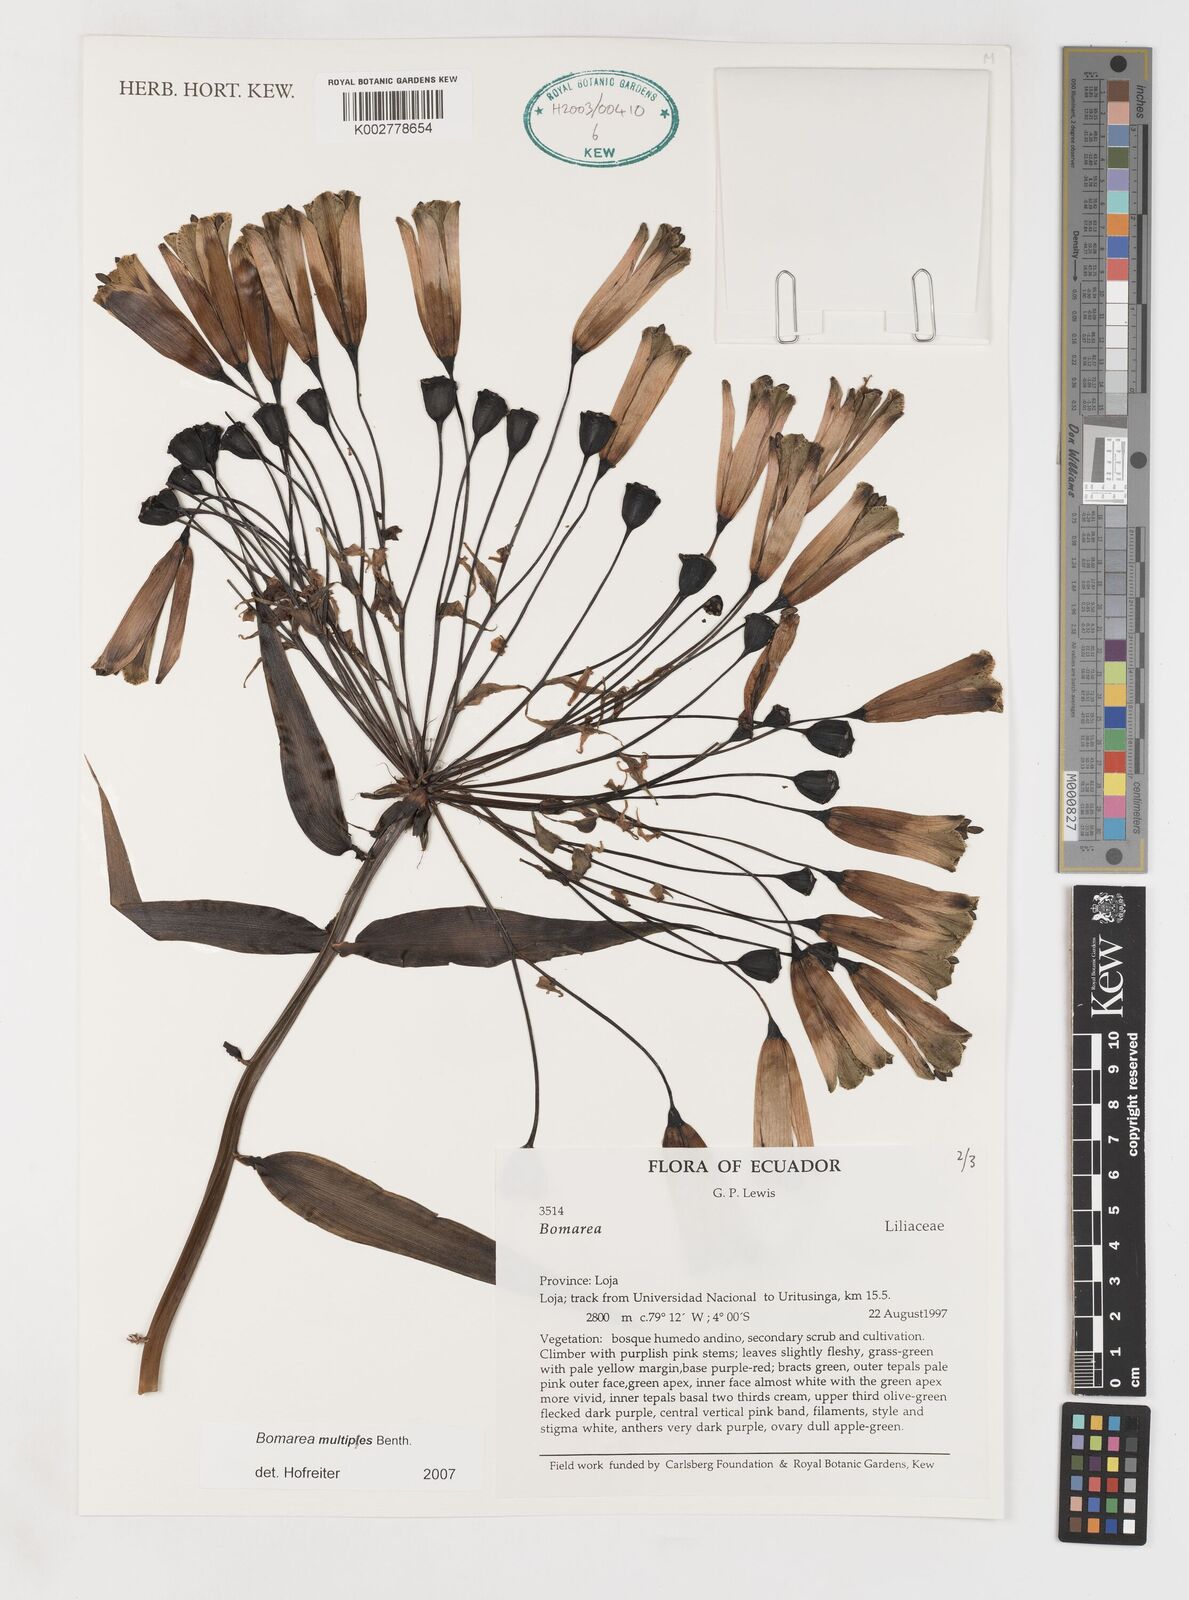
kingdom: Plantae
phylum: Tracheophyta
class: Liliopsida
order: Liliales
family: Alstroemeriaceae
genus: Bomarea
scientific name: Bomarea multipes
